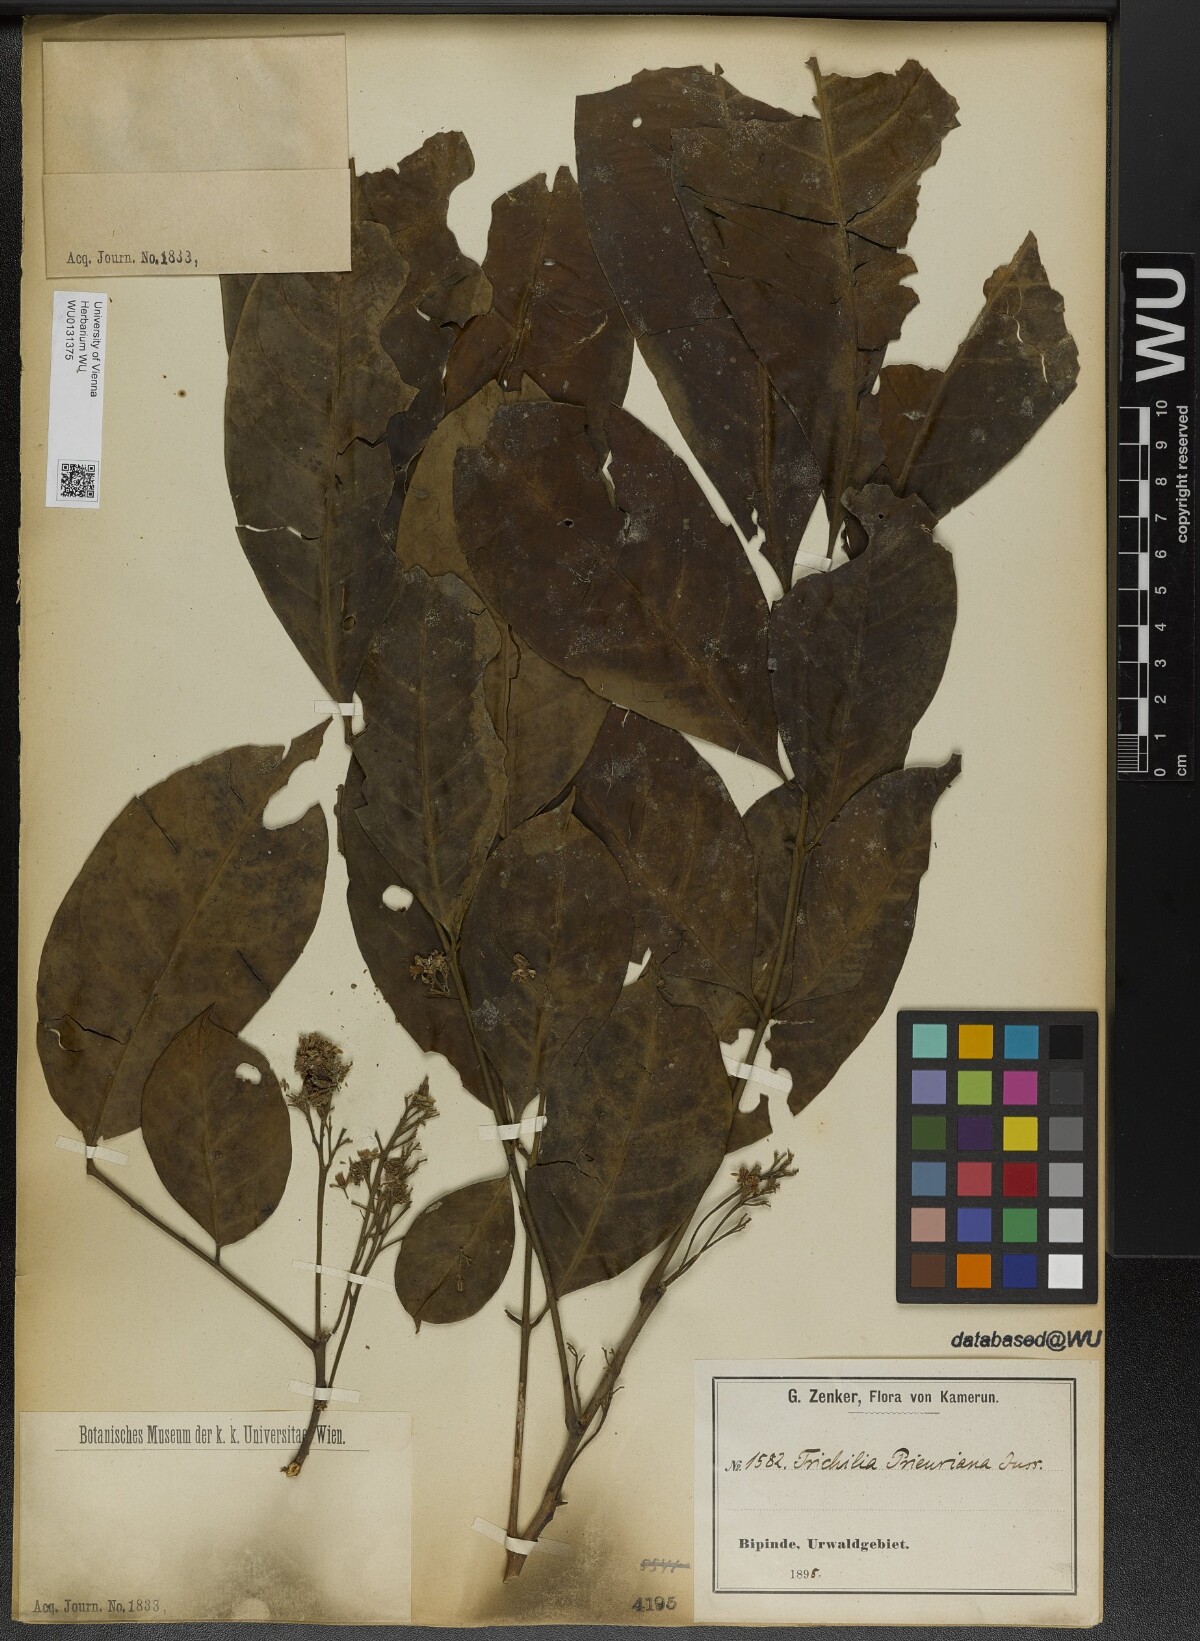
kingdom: Plantae
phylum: Tracheophyta
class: Magnoliopsida
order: Sapindales
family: Meliaceae
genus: Trichilia
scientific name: Trichilia prieuriana
